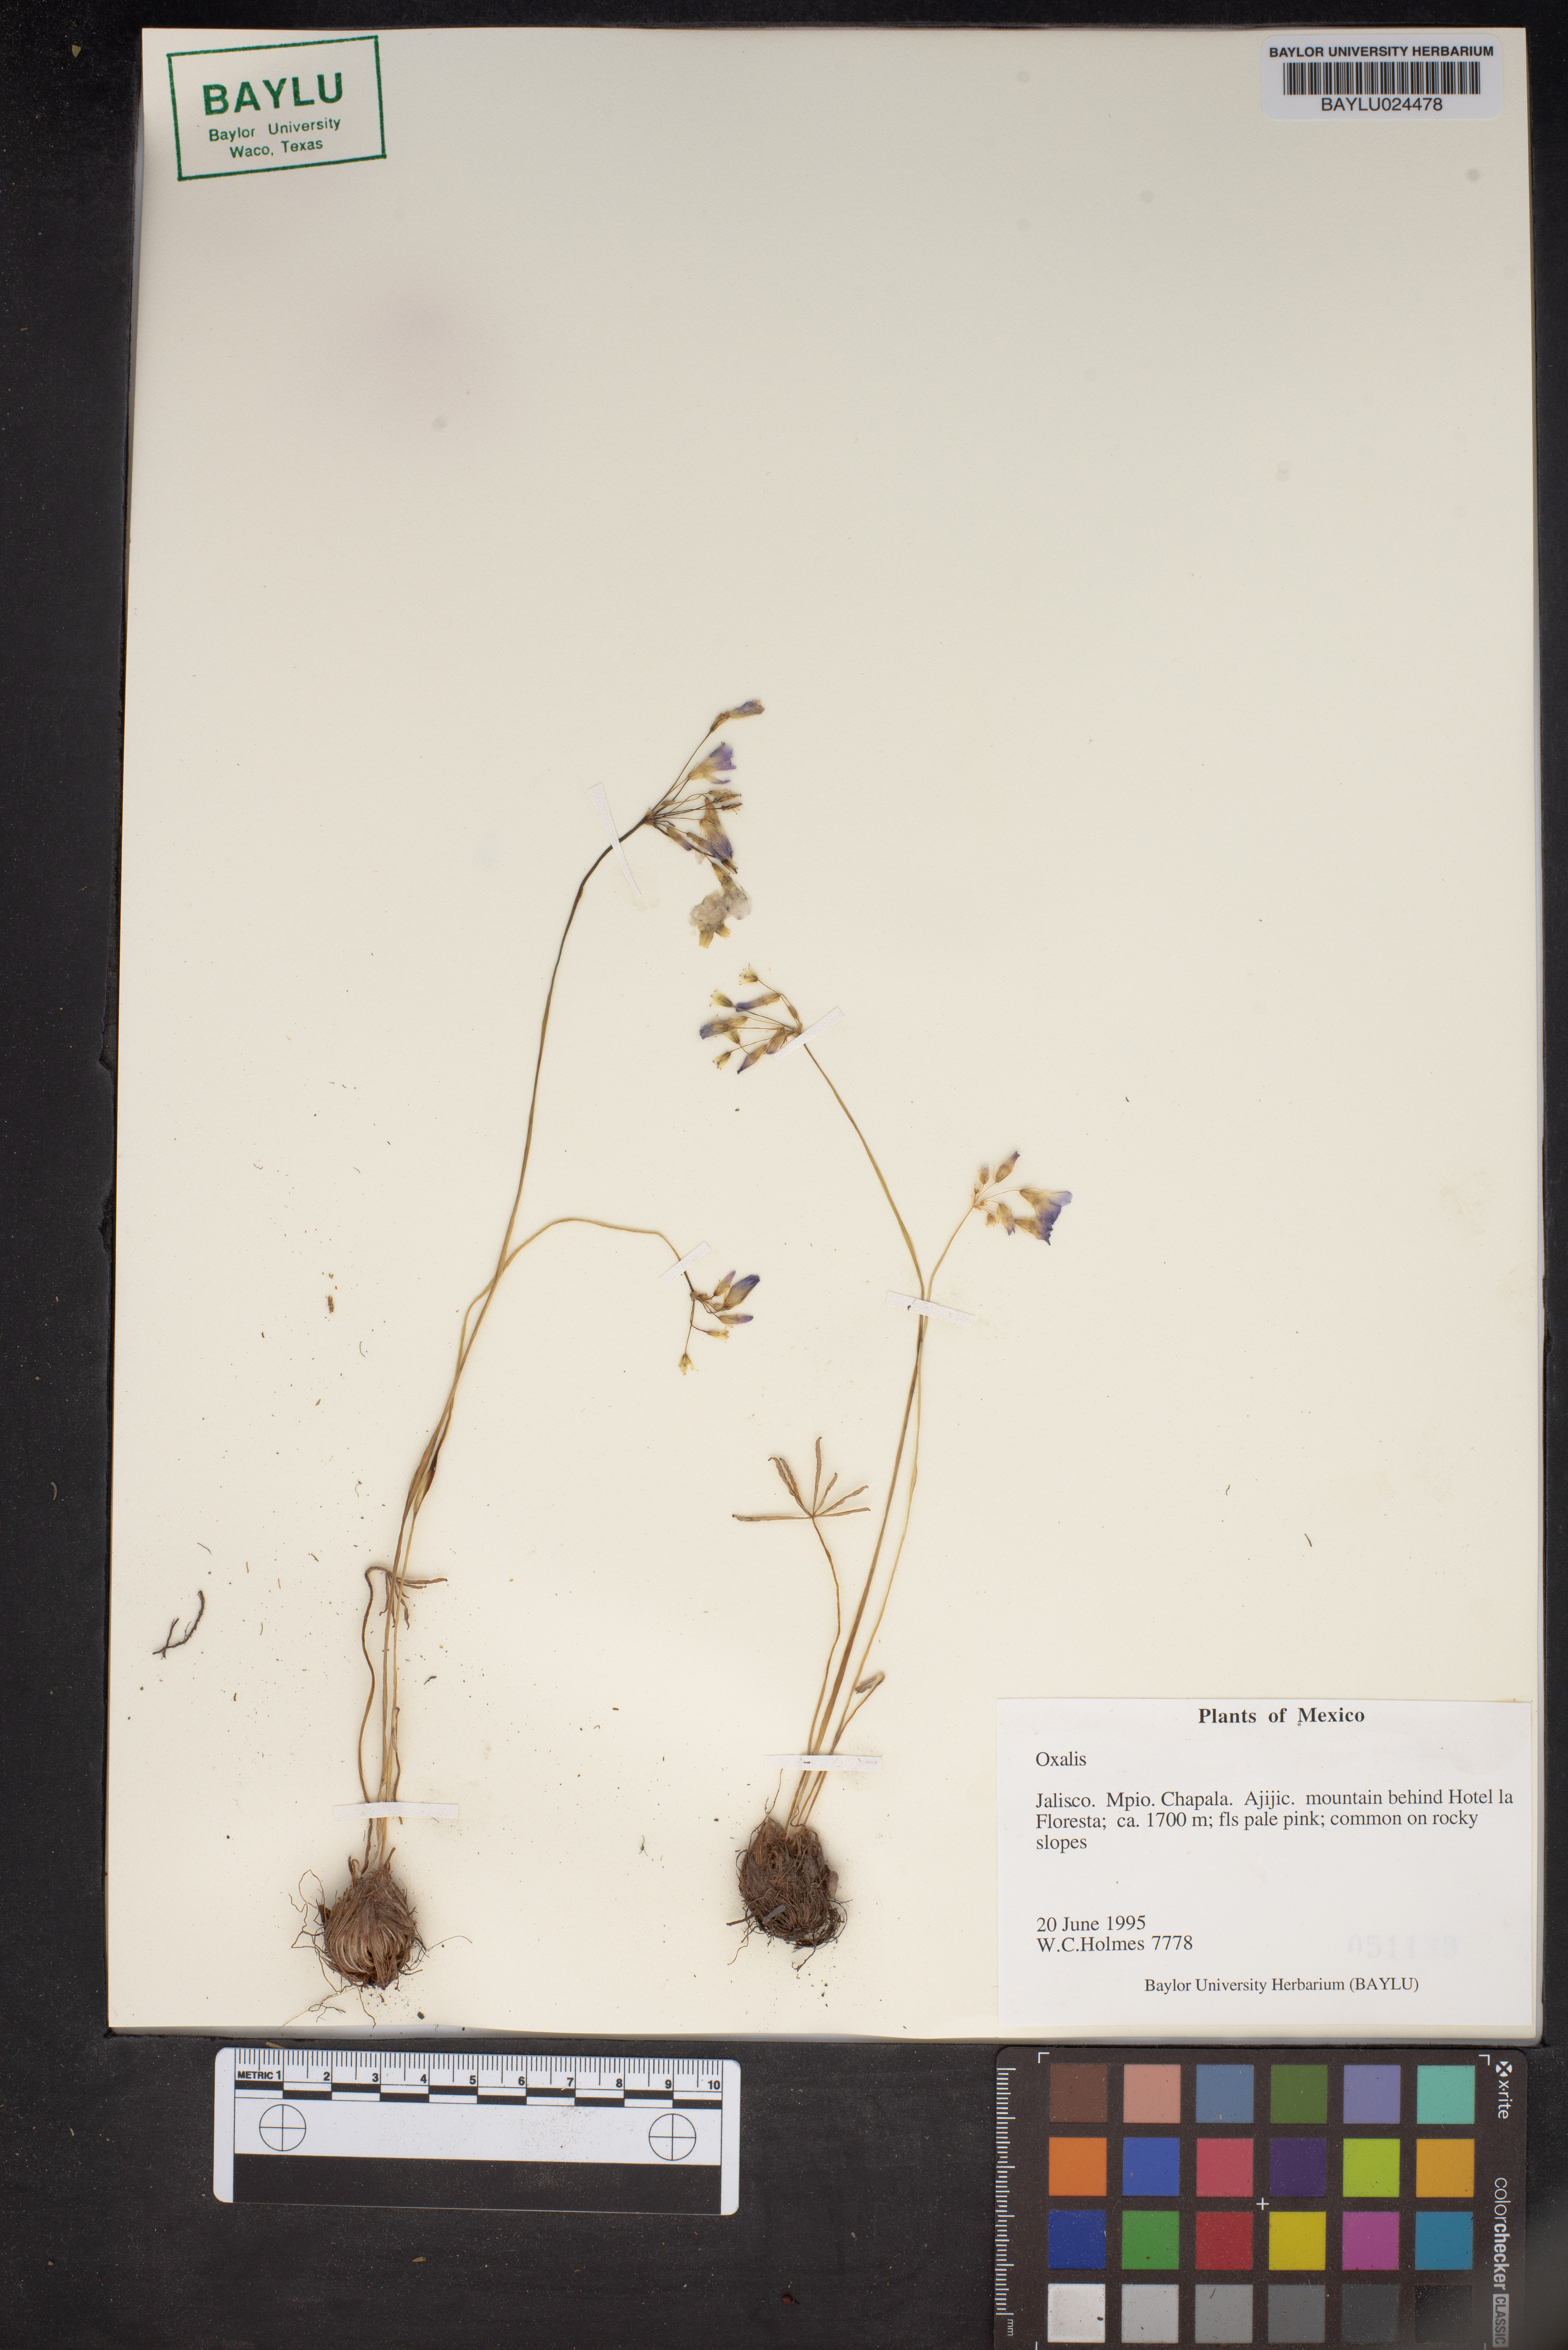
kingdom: Plantae
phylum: Tracheophyta
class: Magnoliopsida
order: Oxalidales
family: Oxalidaceae
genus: Oxalis
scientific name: Oxalis
